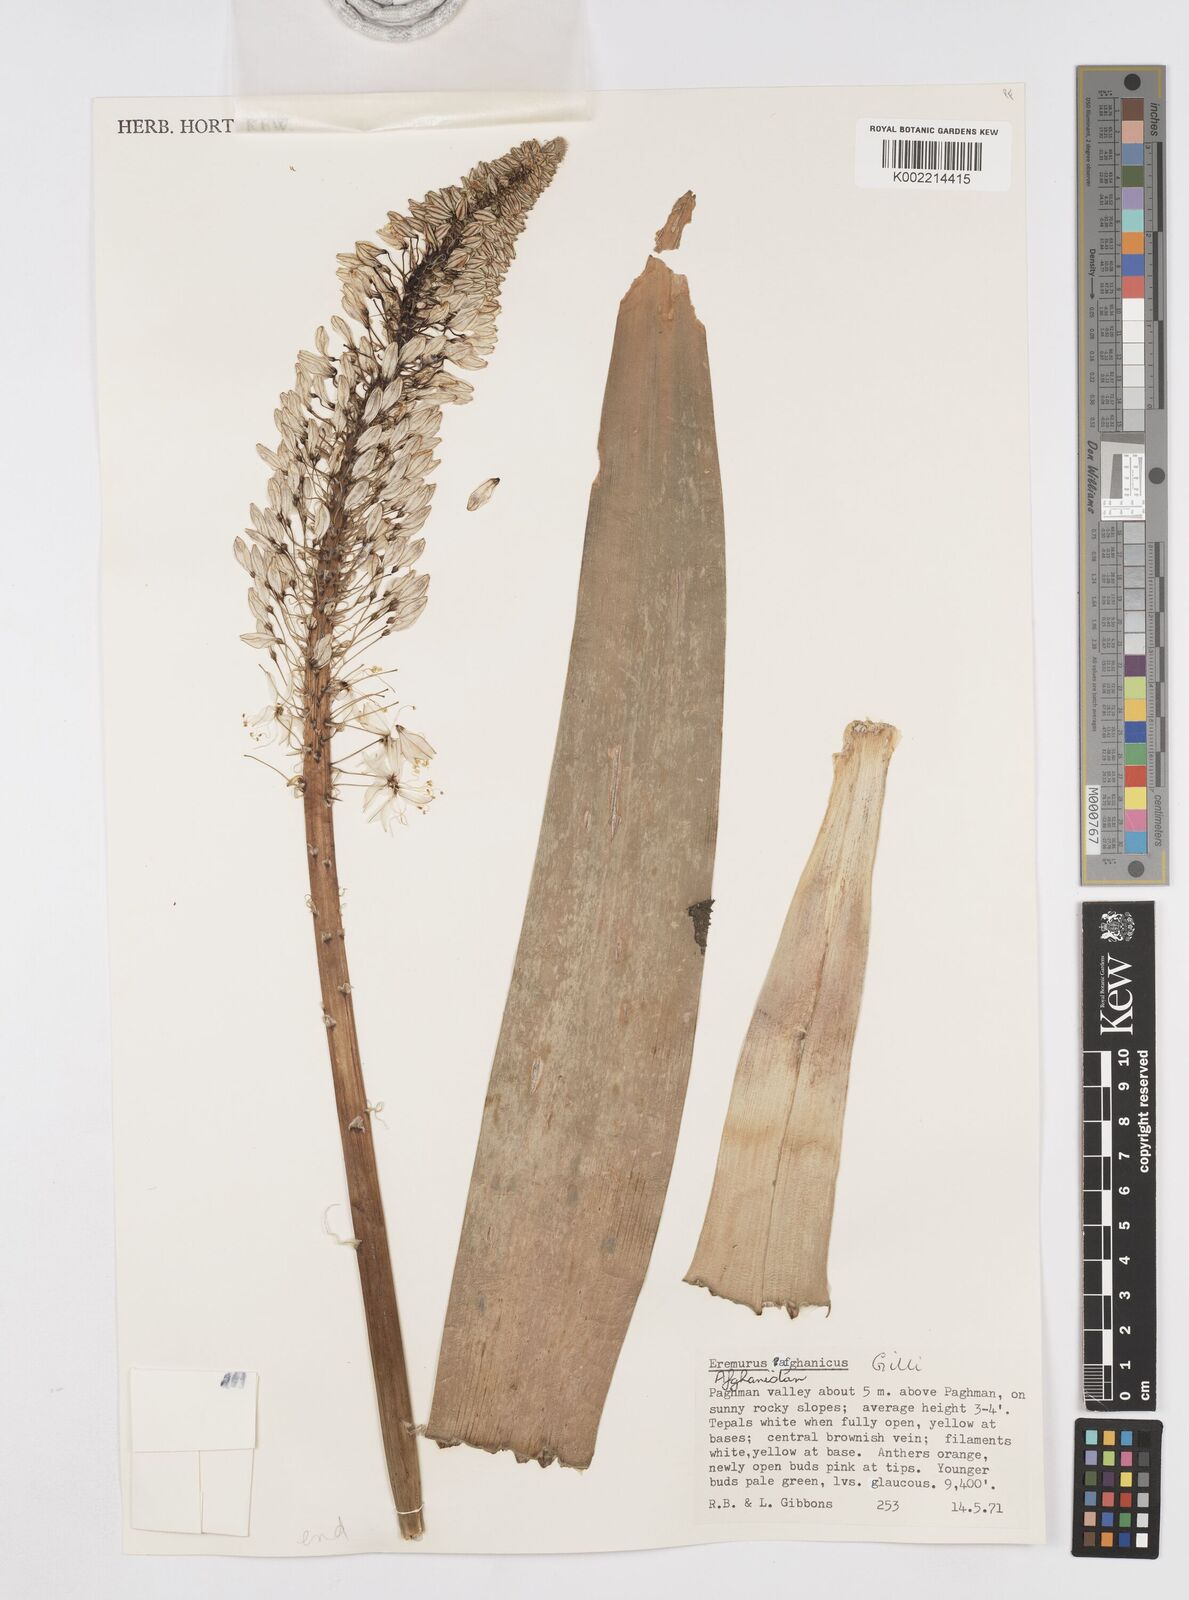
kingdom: Plantae
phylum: Tracheophyta
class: Liliopsida
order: Asparagales
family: Asphodelaceae
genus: Eremurus
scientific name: Eremurus afghanicus
